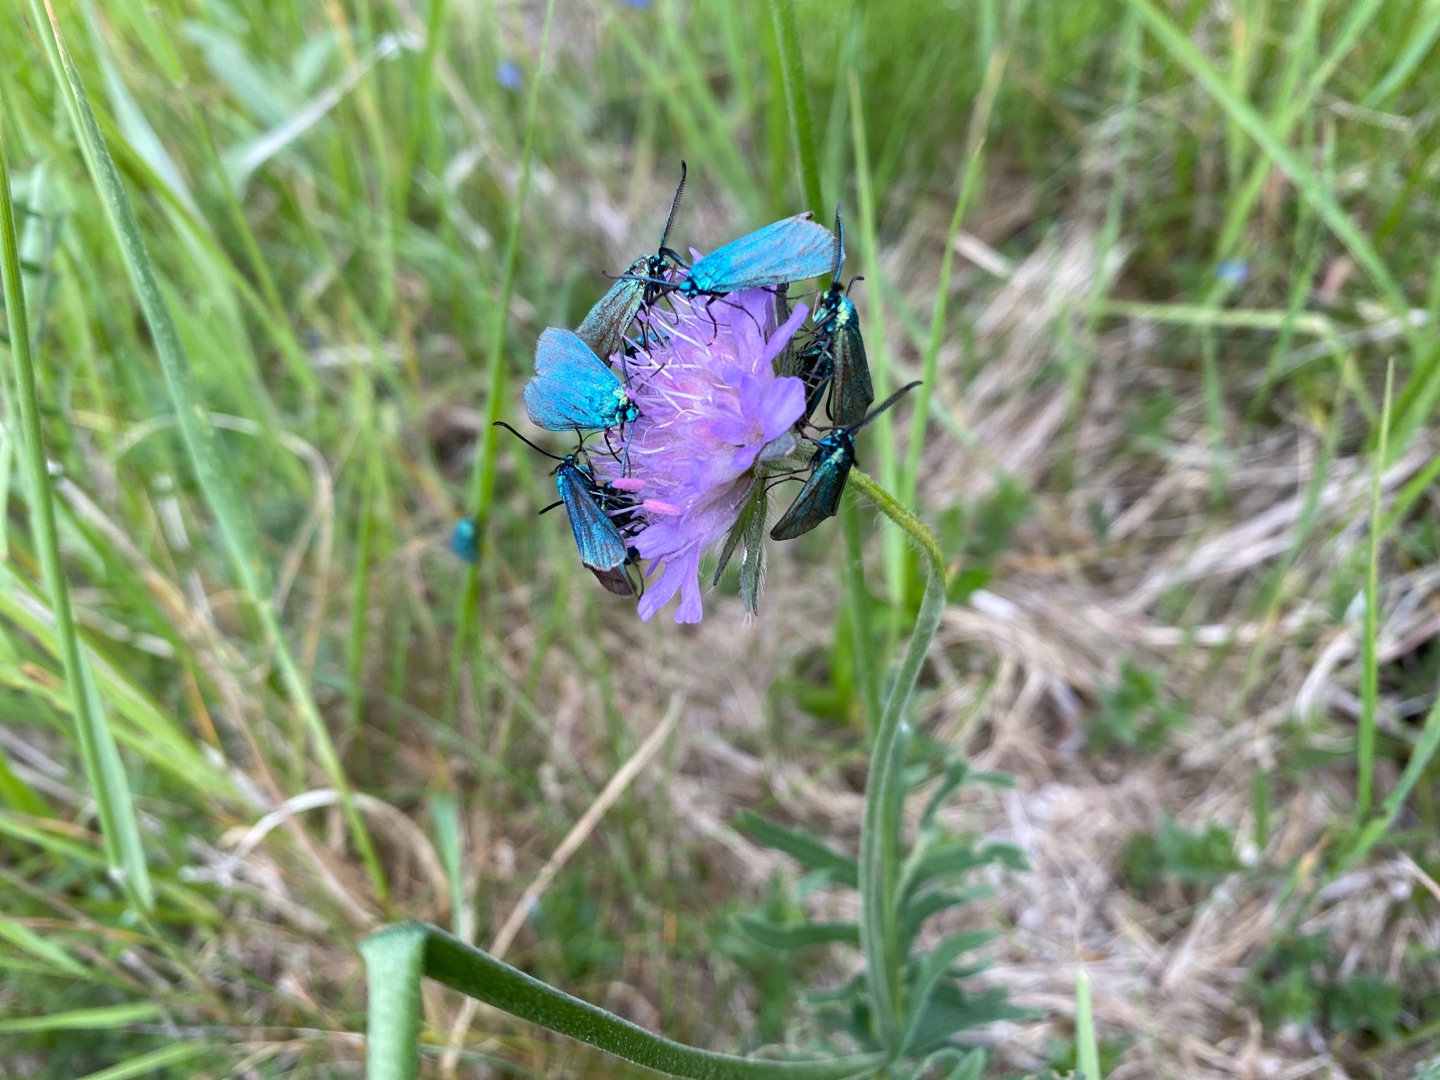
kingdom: Animalia
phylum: Arthropoda
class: Insecta
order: Lepidoptera
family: Zygaenidae
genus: Adscita
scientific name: Adscita statices
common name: Metalvinge
